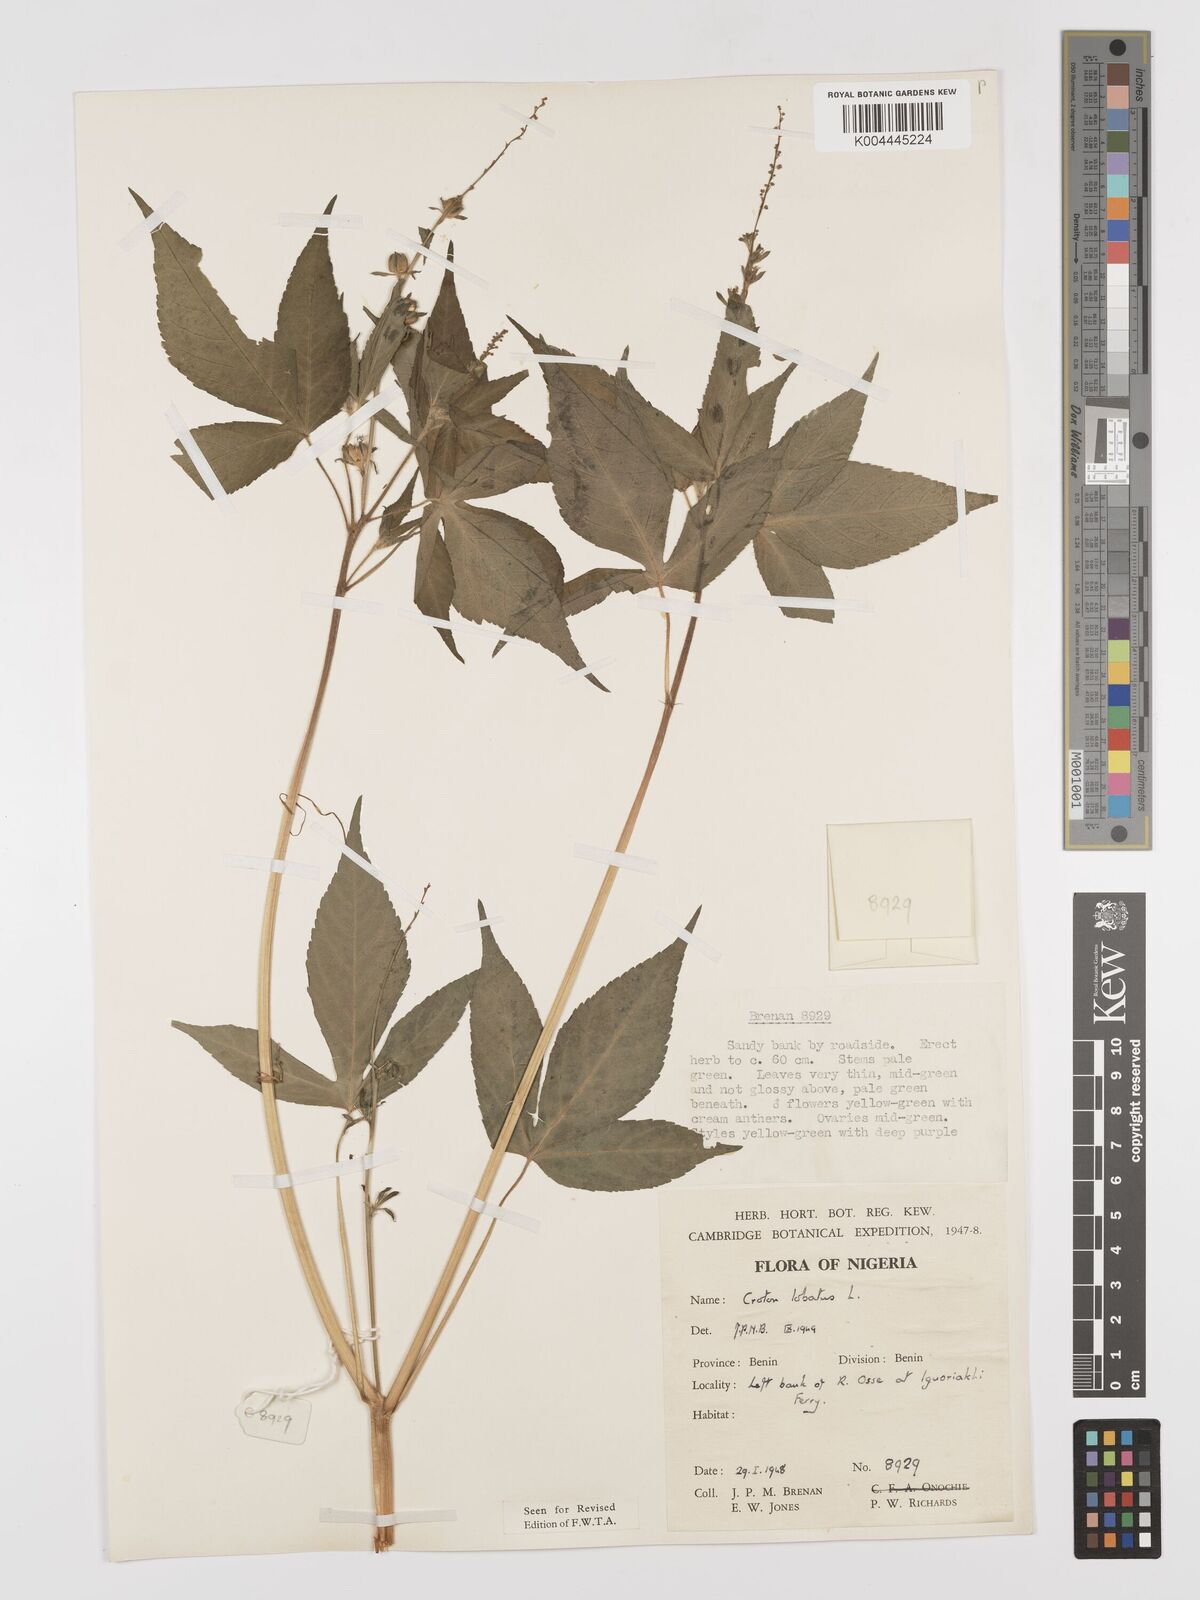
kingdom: Plantae
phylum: Tracheophyta
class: Magnoliopsida
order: Malpighiales
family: Euphorbiaceae
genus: Astraea
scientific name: Astraea lobata
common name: Lobed croton
